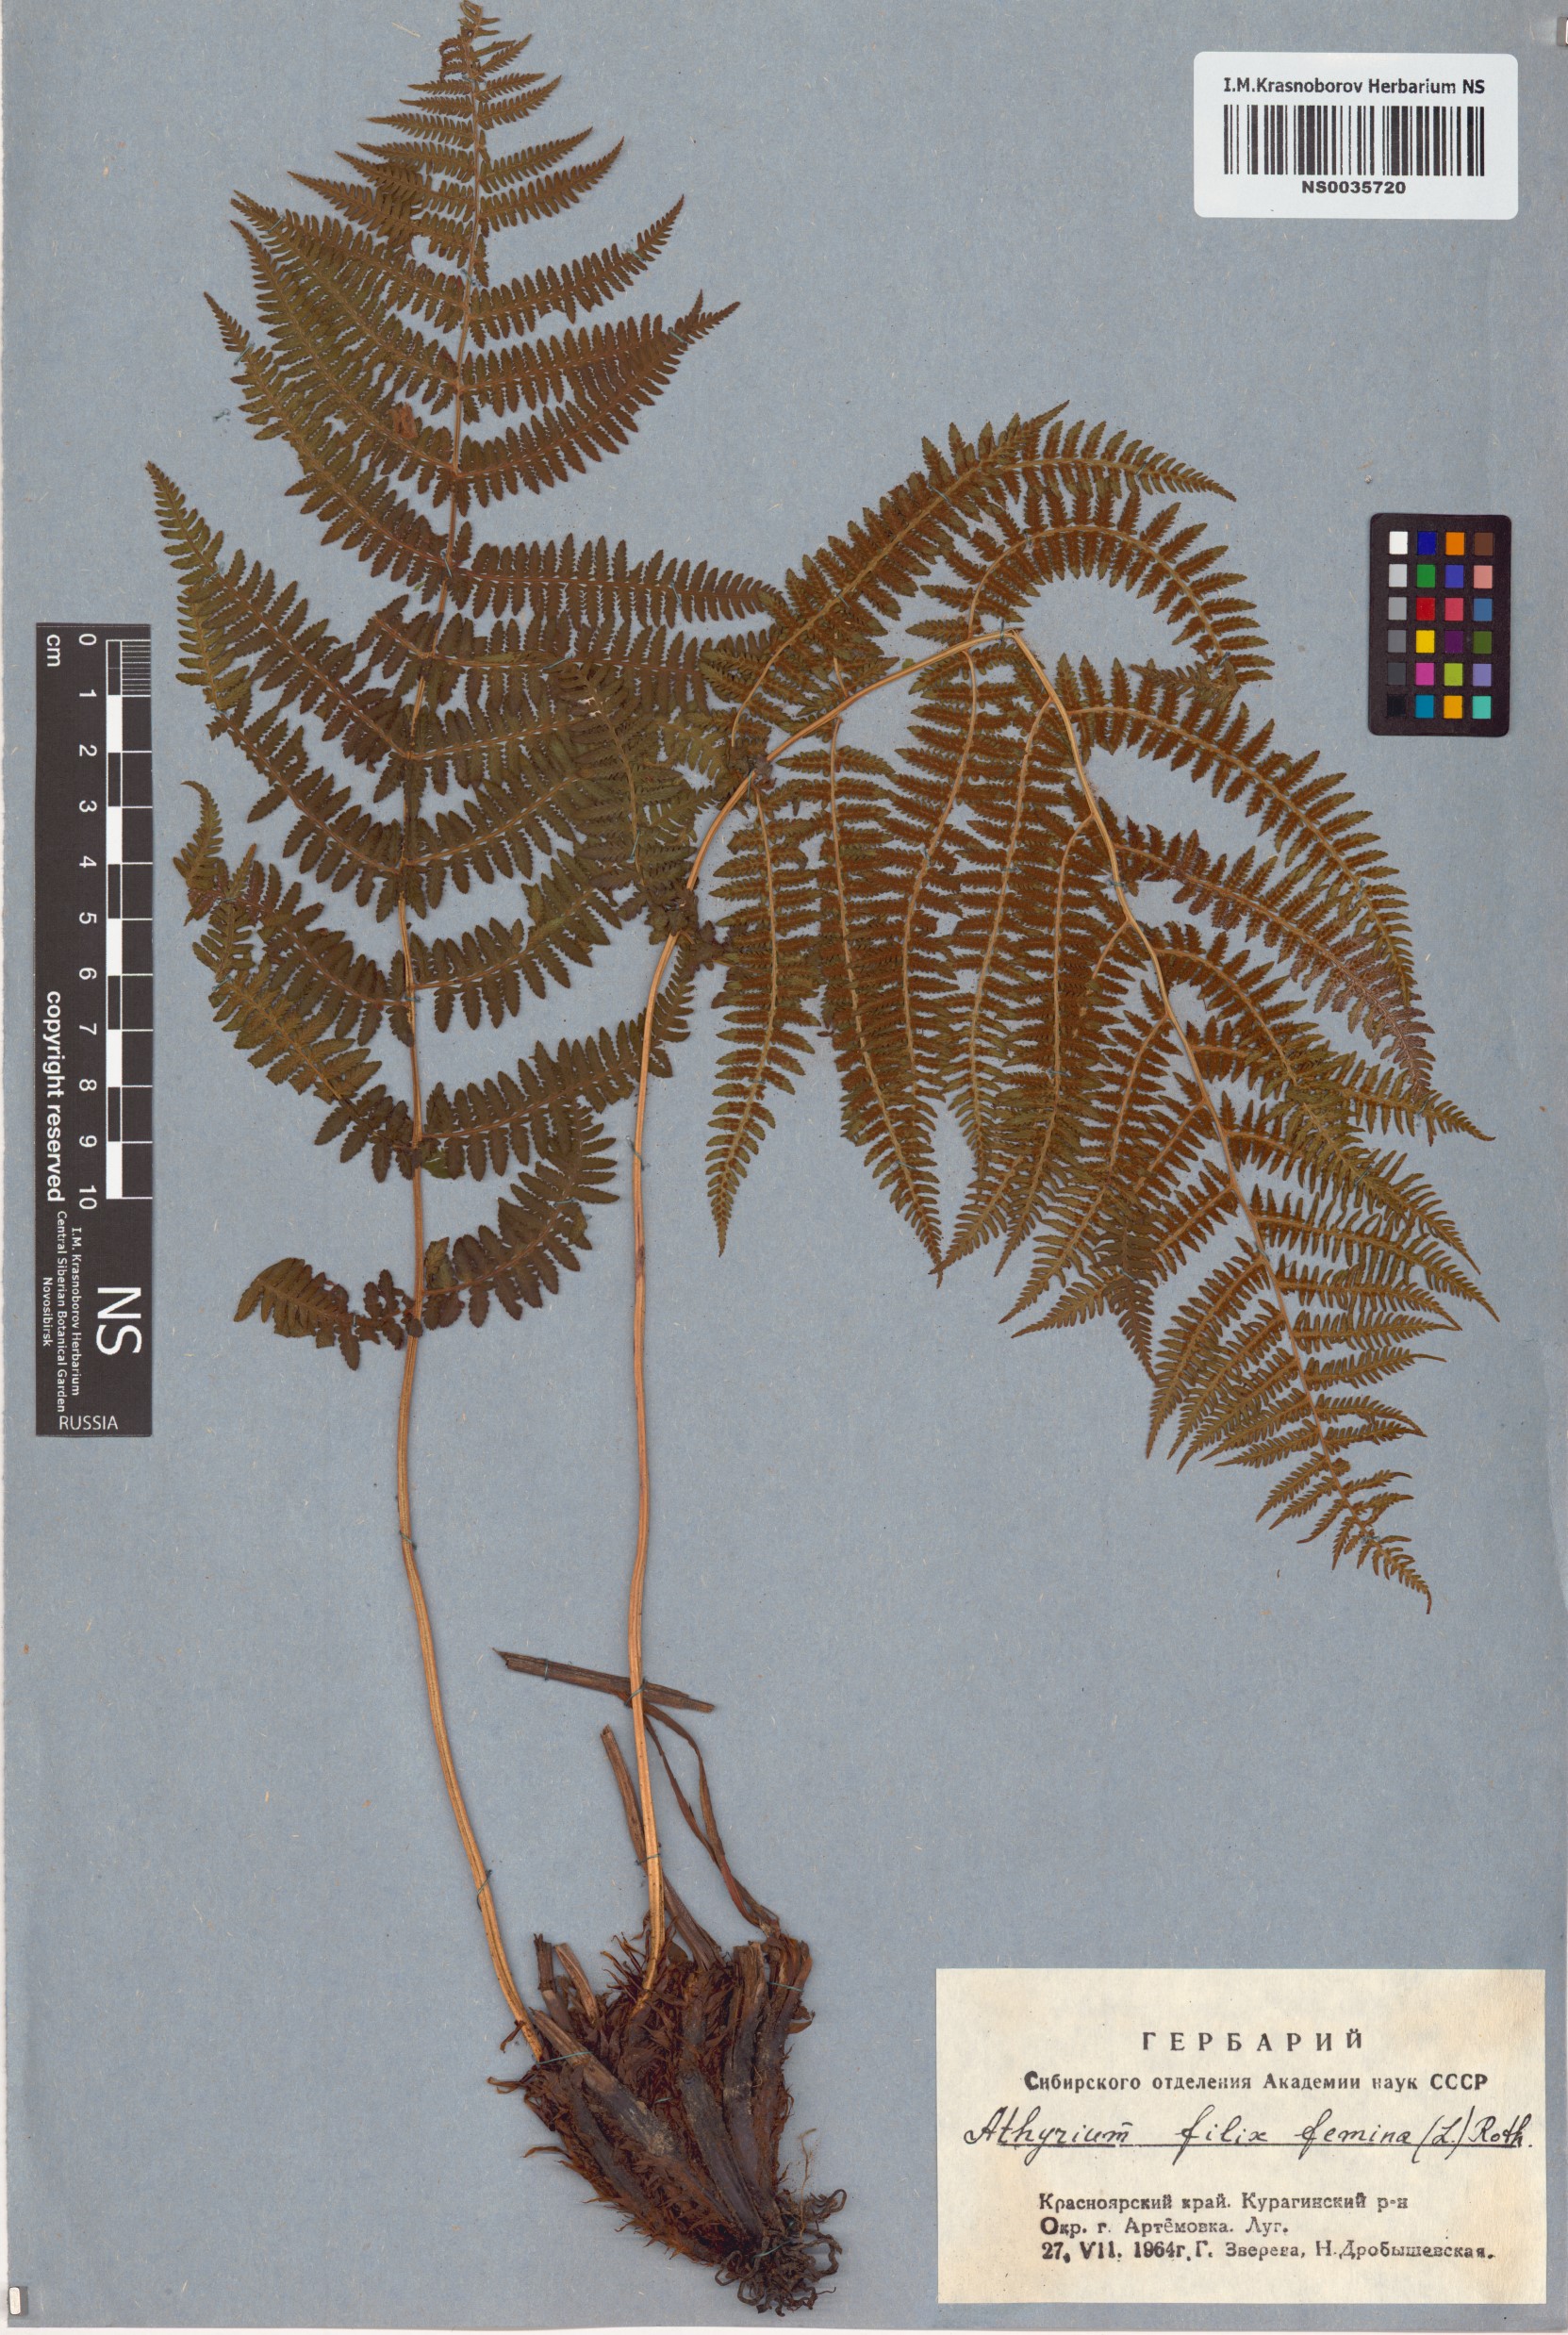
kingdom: Plantae
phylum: Tracheophyta
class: Polypodiopsida
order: Polypodiales
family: Athyriaceae
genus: Athyrium
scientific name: Athyrium filix-femina
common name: Lady fern
